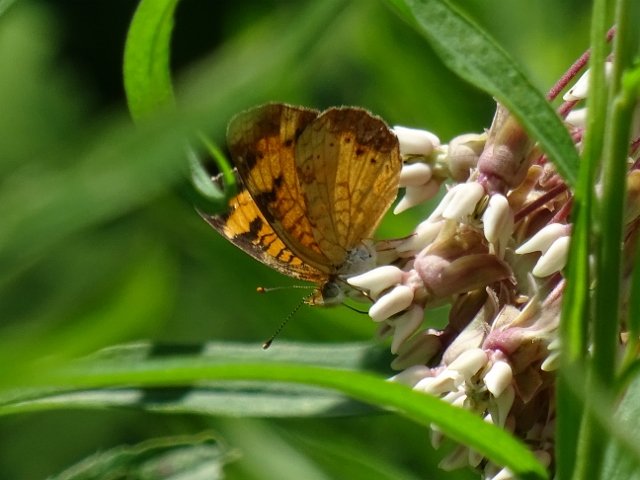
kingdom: Animalia
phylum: Arthropoda
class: Insecta
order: Lepidoptera
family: Nymphalidae
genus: Phyciodes
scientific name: Phyciodes tharos
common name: Northern Crescent
